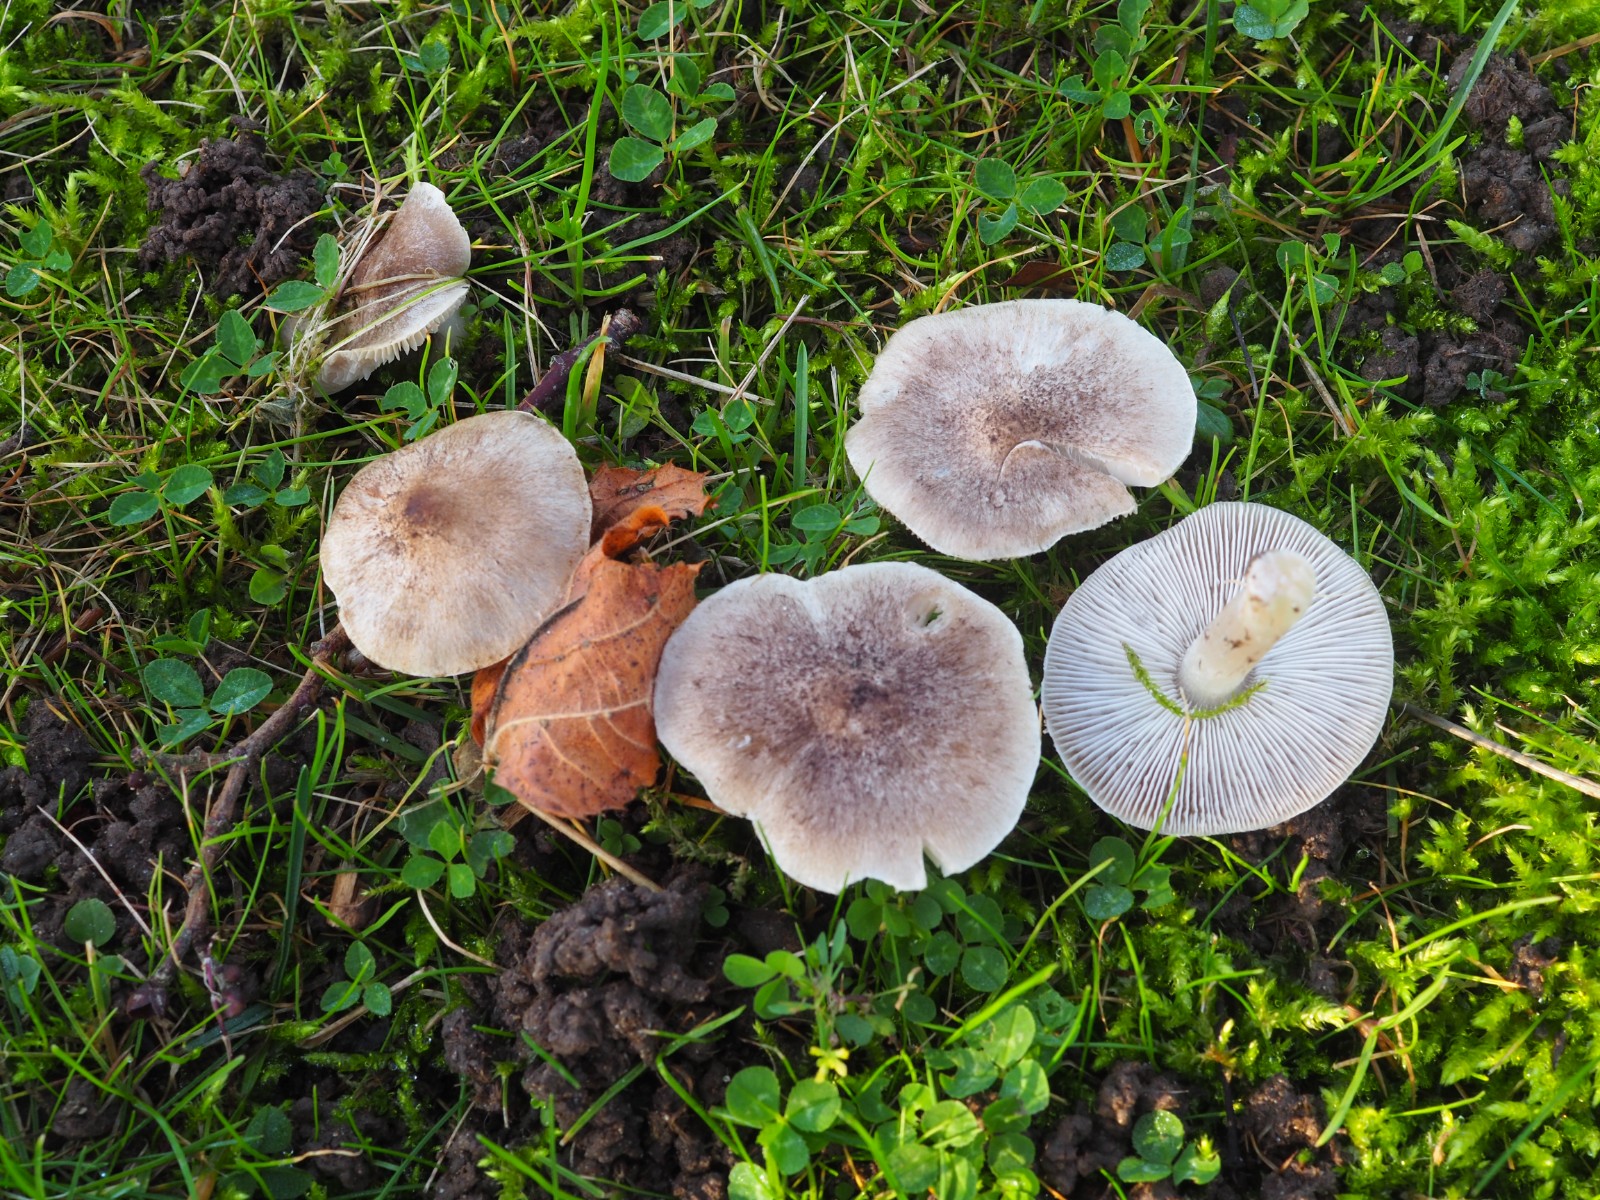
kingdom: Fungi
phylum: Basidiomycota
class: Agaricomycetes
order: Agaricales
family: Tricholomataceae
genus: Tricholoma
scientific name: Tricholoma
